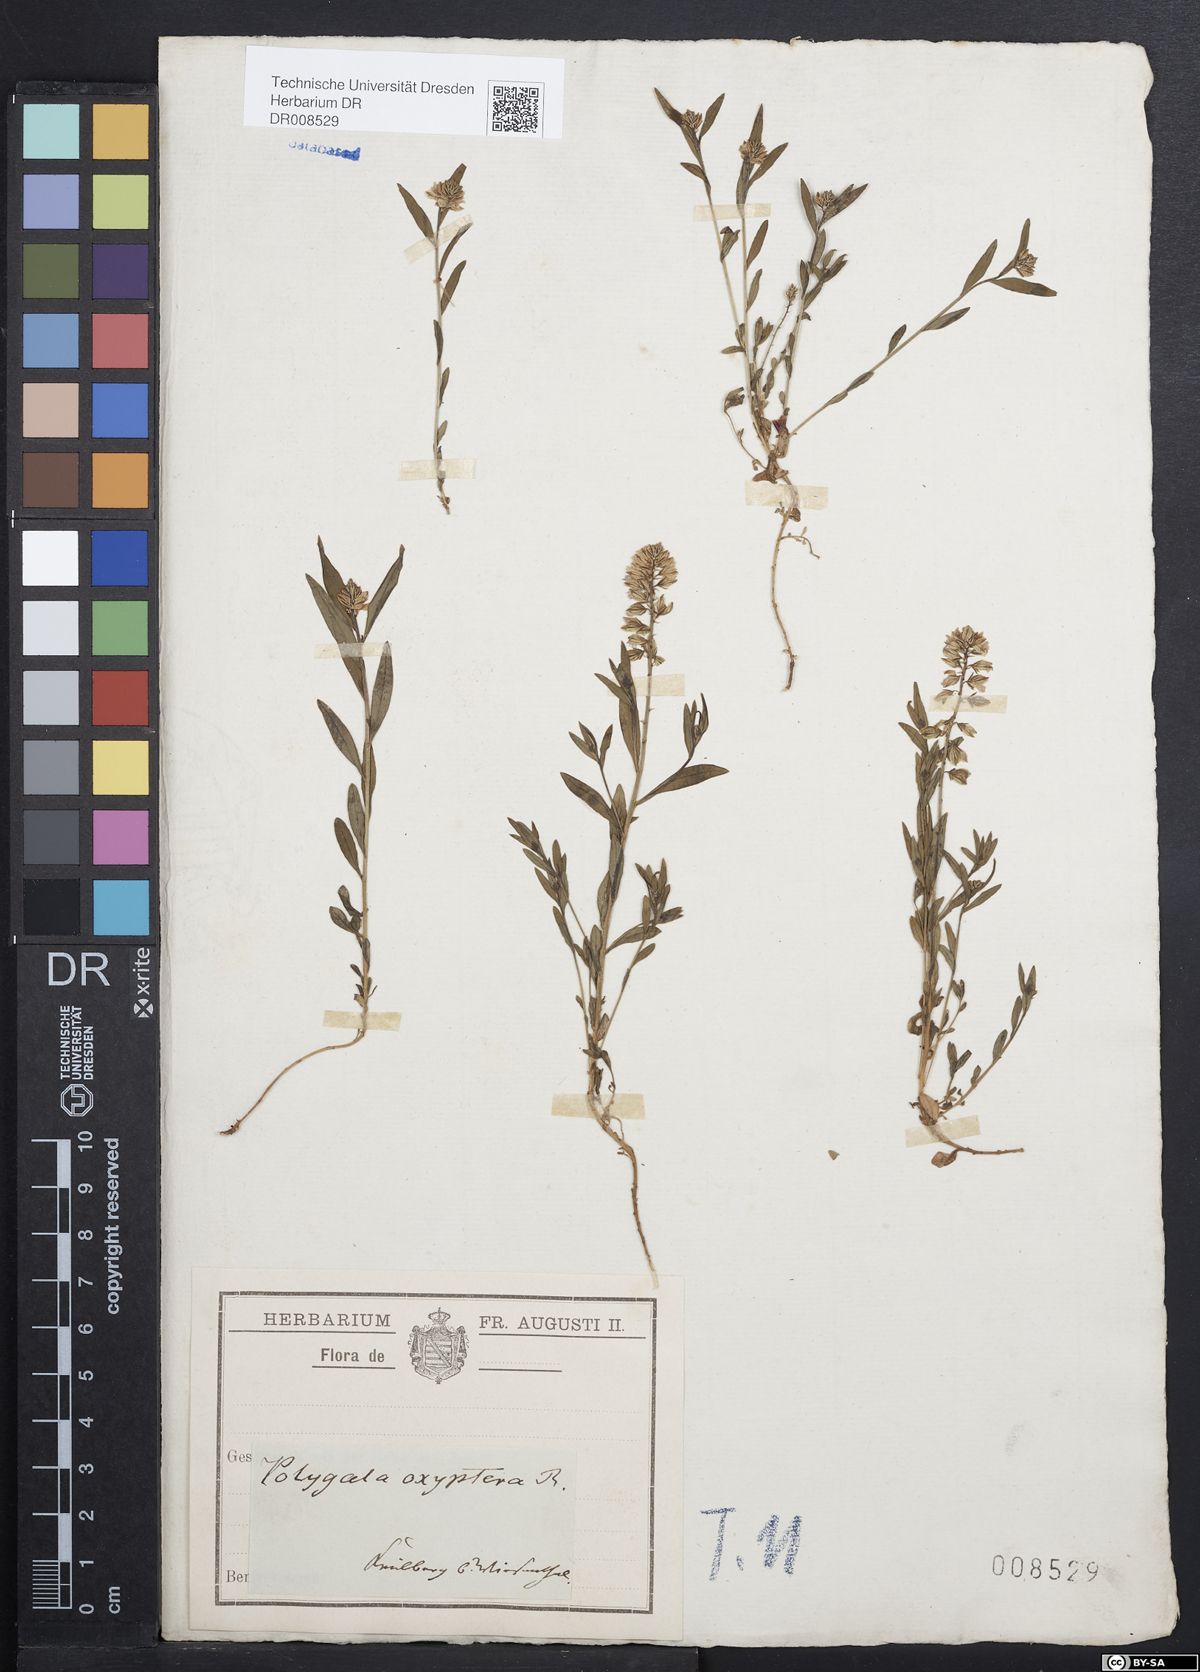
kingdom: Plantae
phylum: Tracheophyta
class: Magnoliopsida
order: Fabales
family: Polygalaceae
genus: Polygala
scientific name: Polygala vulgaris
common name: Common milkwort
